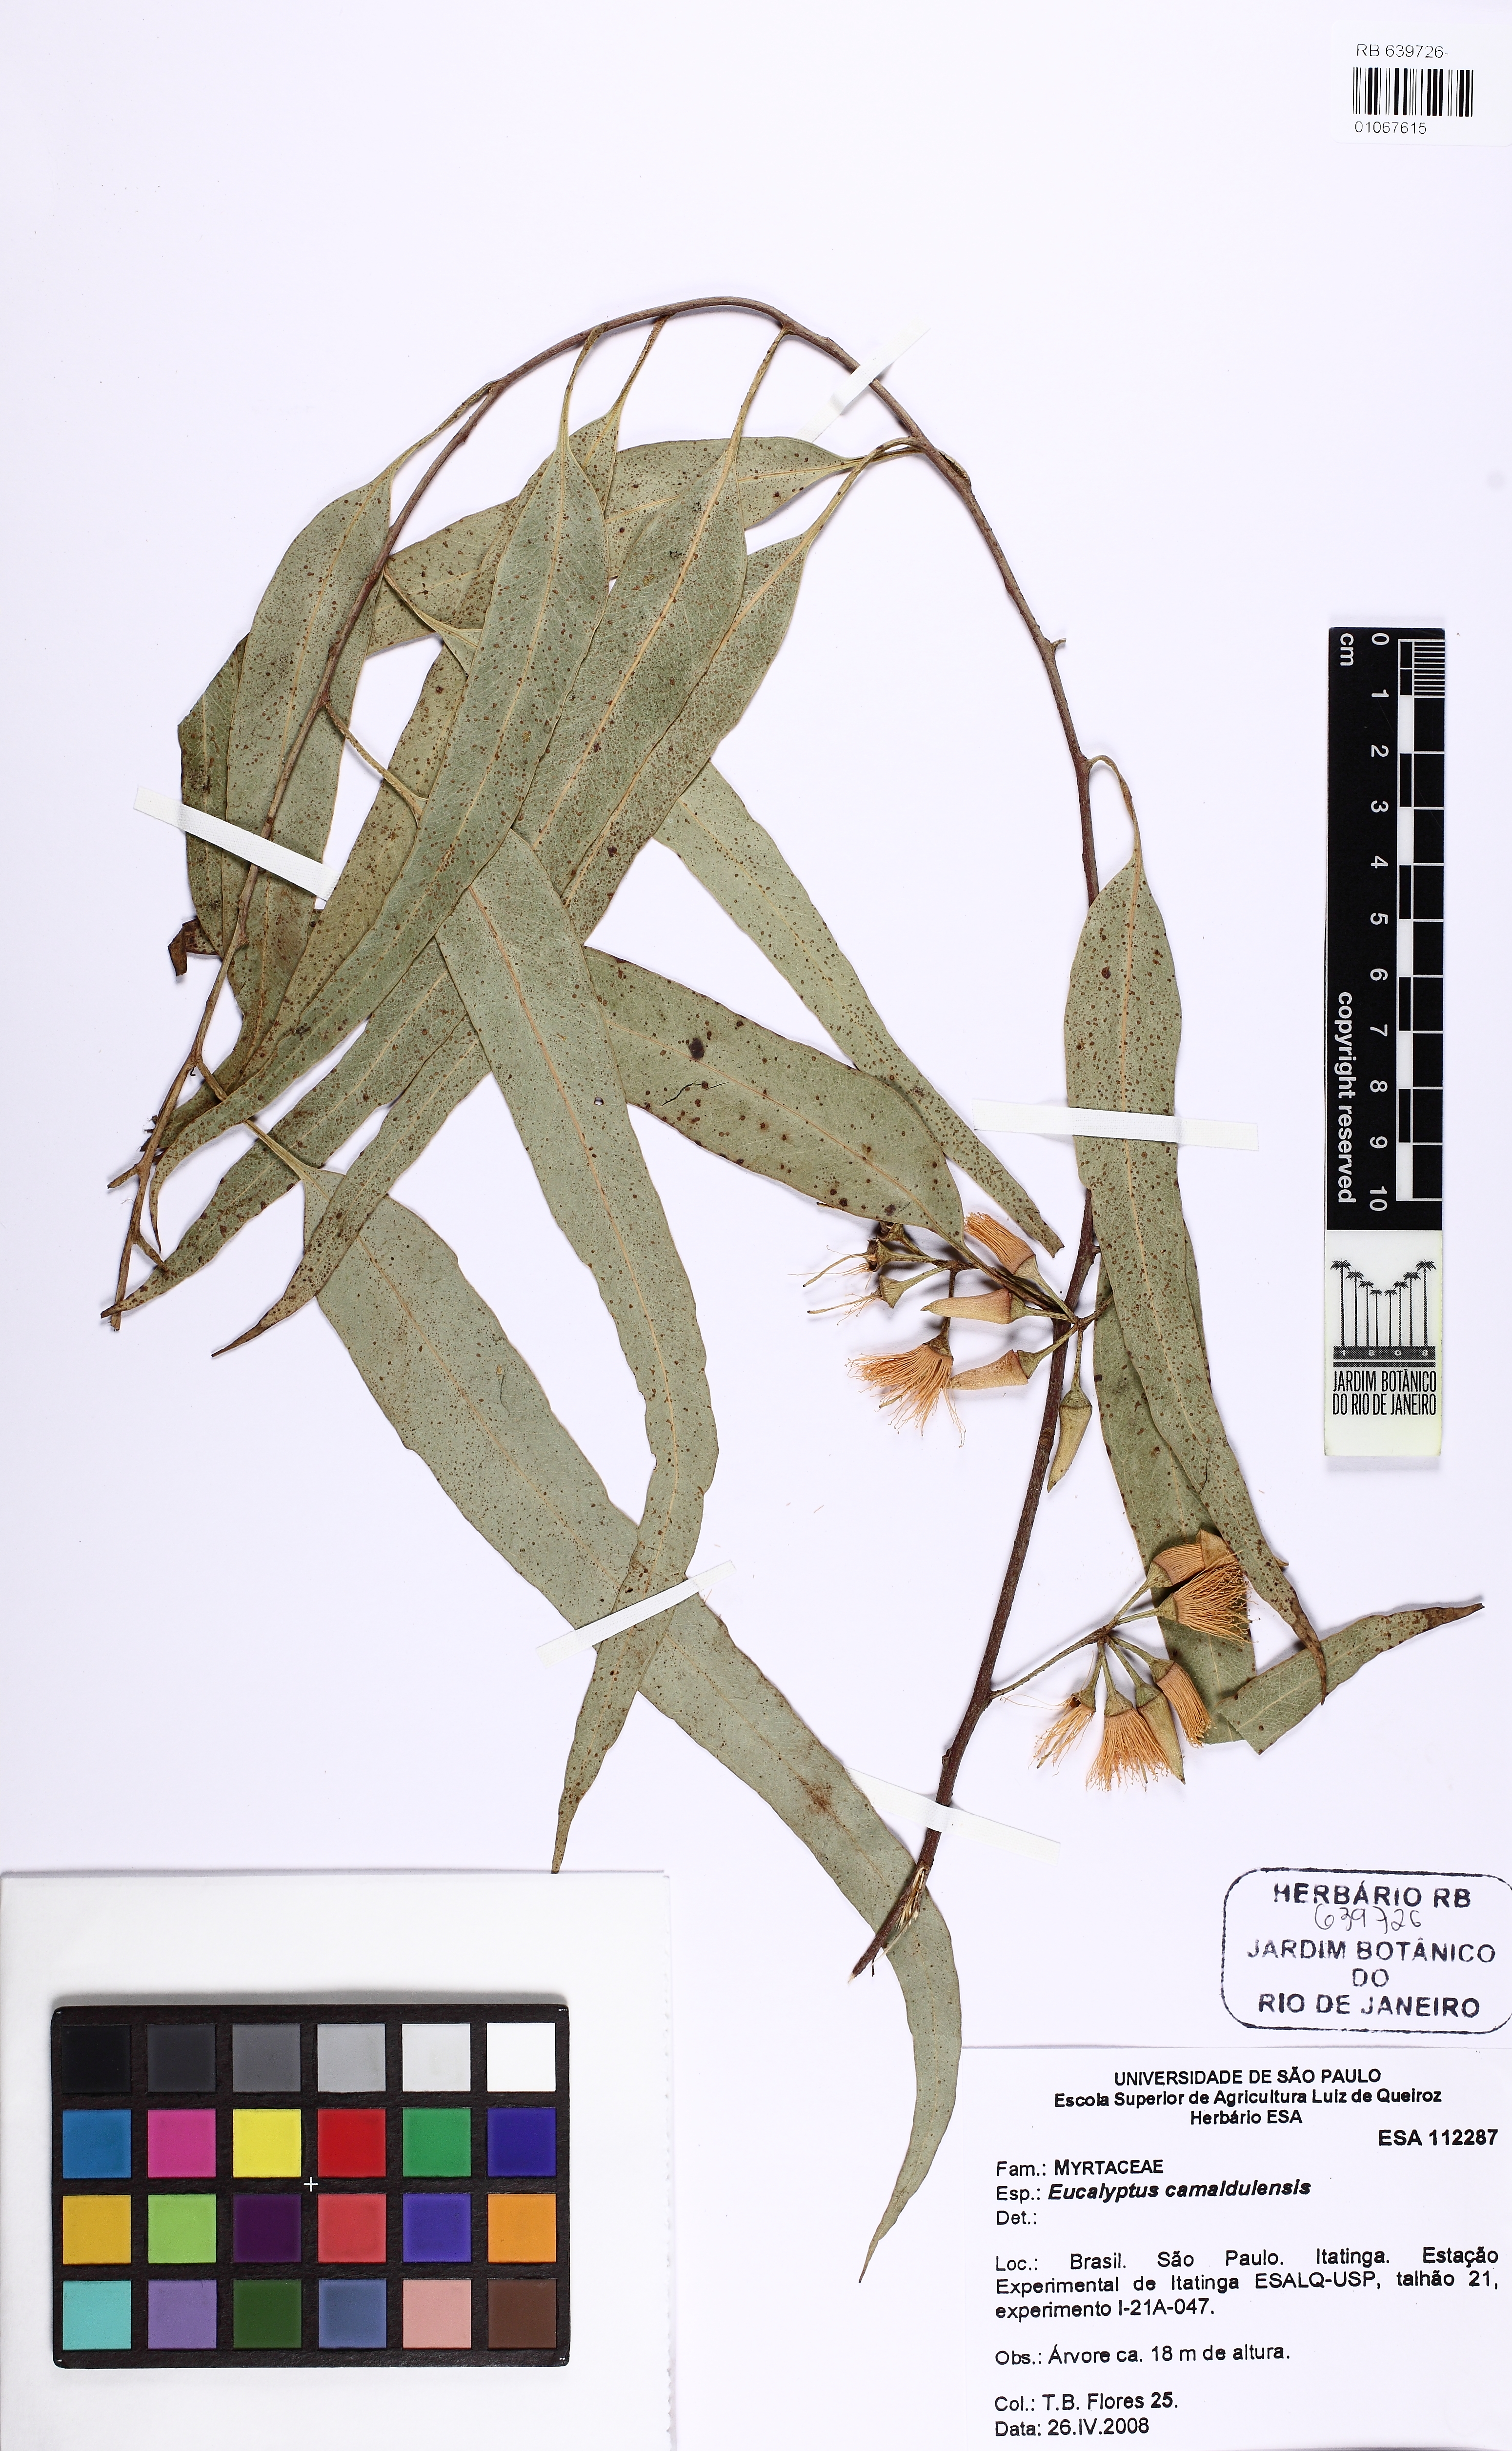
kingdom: Plantae
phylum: Tracheophyta
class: Magnoliopsida
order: Myrtales
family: Myrtaceae
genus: Eucalyptus
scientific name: Eucalyptus camaldulensis
